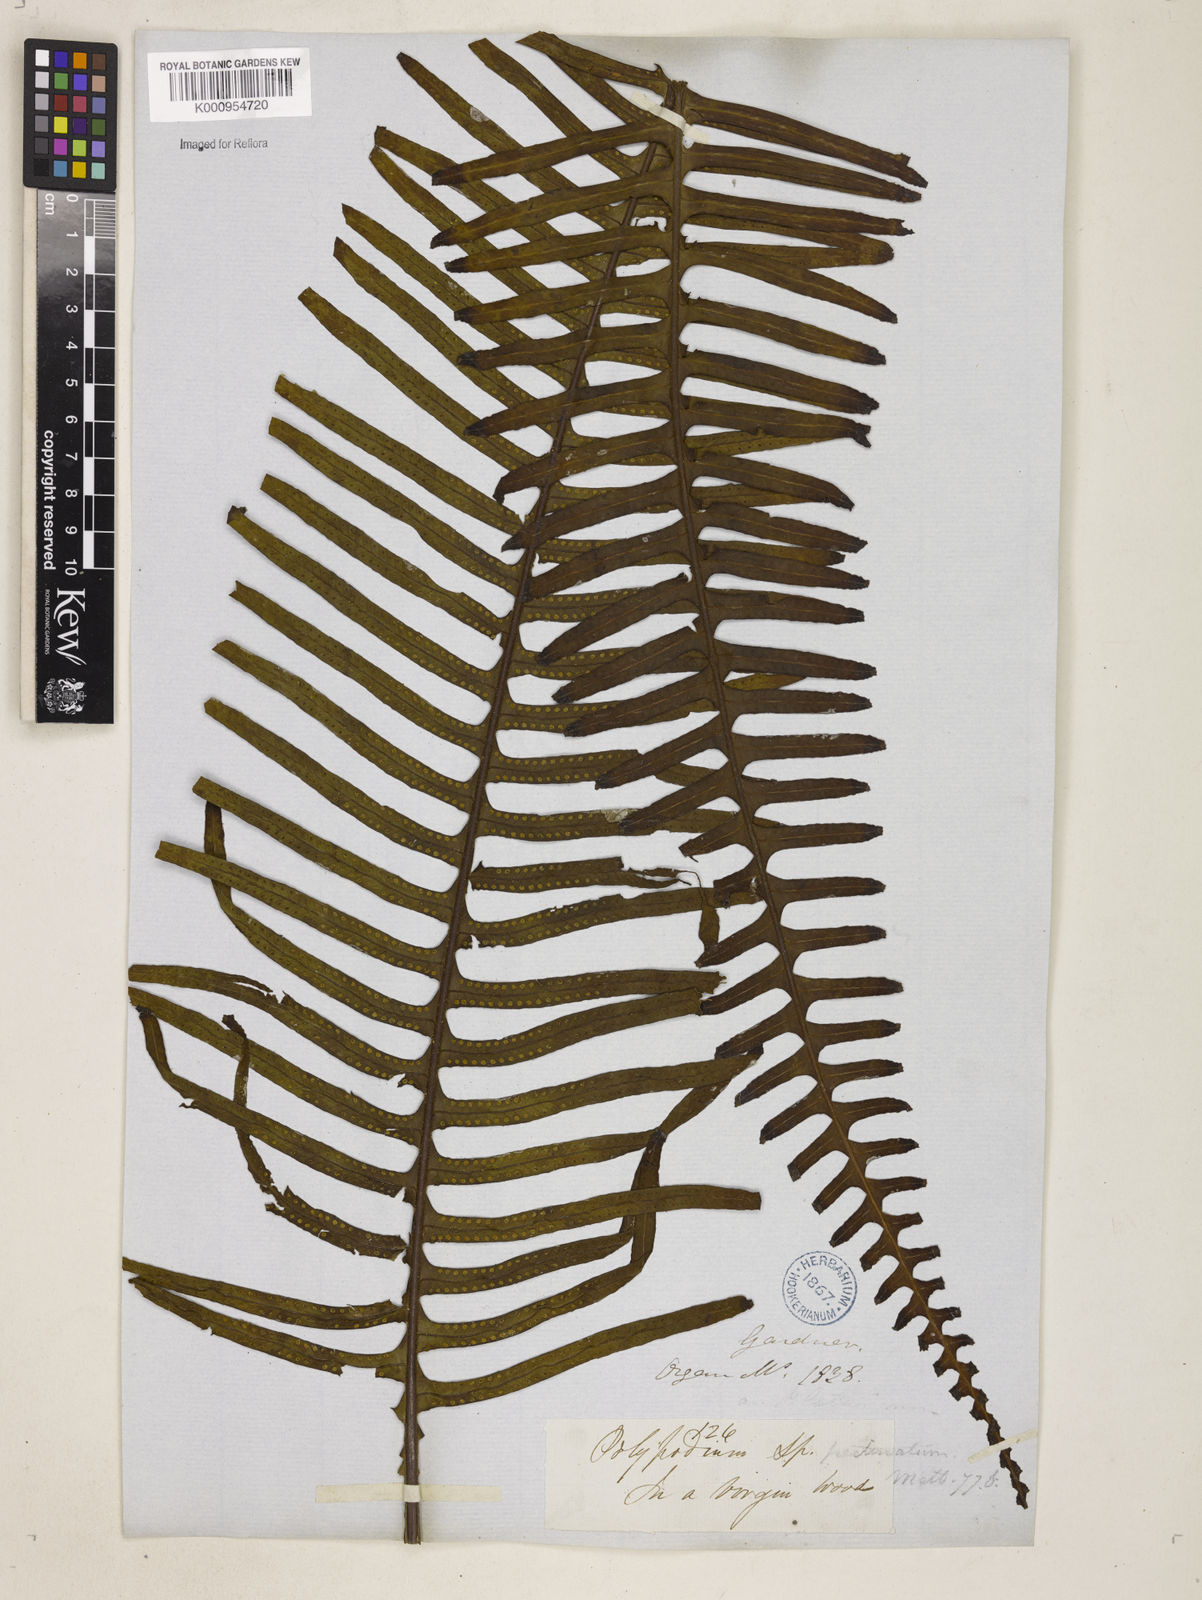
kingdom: Plantae
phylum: Tracheophyta
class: Polypodiopsida
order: Polypodiales
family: Polypodiaceae
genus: Pecluma
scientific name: Pecluma robusta
